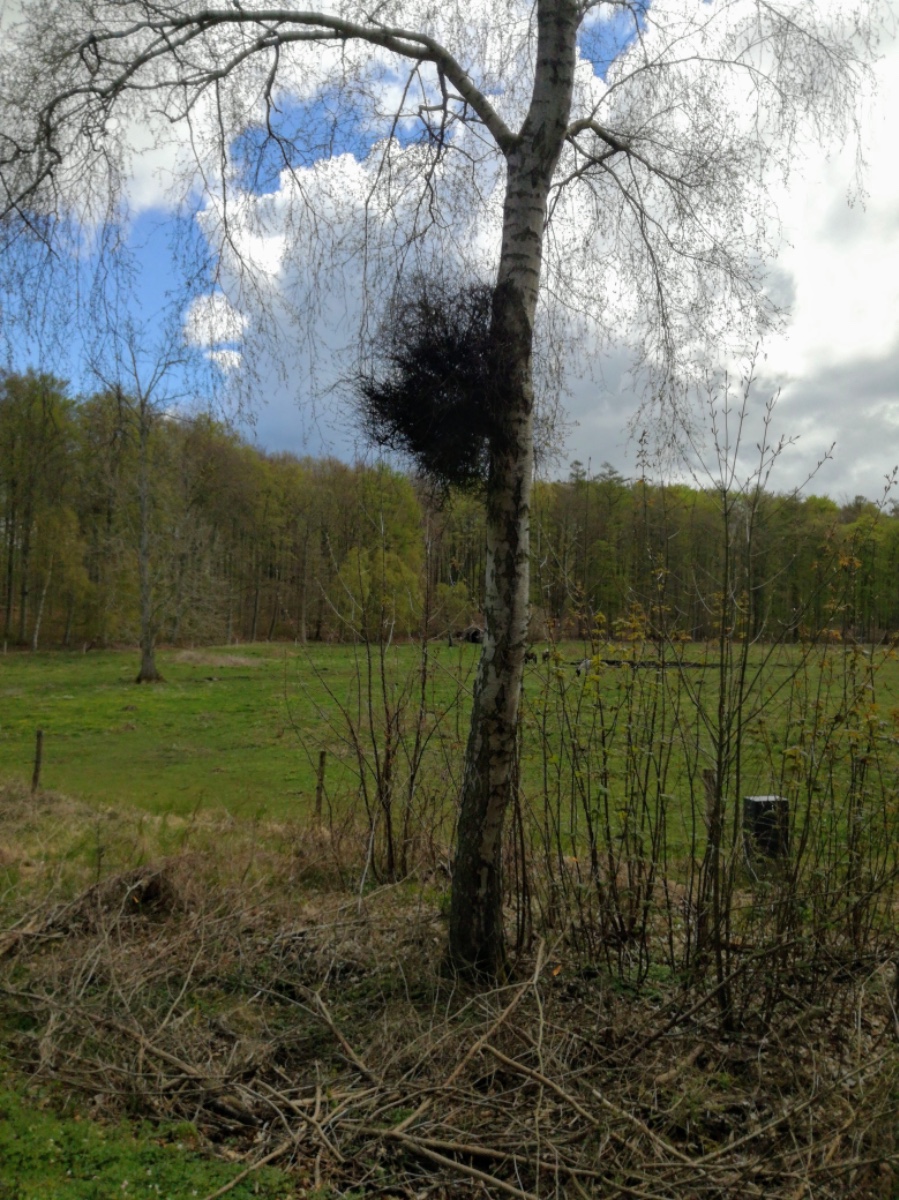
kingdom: Fungi
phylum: Ascomycota
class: Taphrinomycetes
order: Taphrinales
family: Taphrinaceae
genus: Taphrina
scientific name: Taphrina betulina
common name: hekse-sækdug
